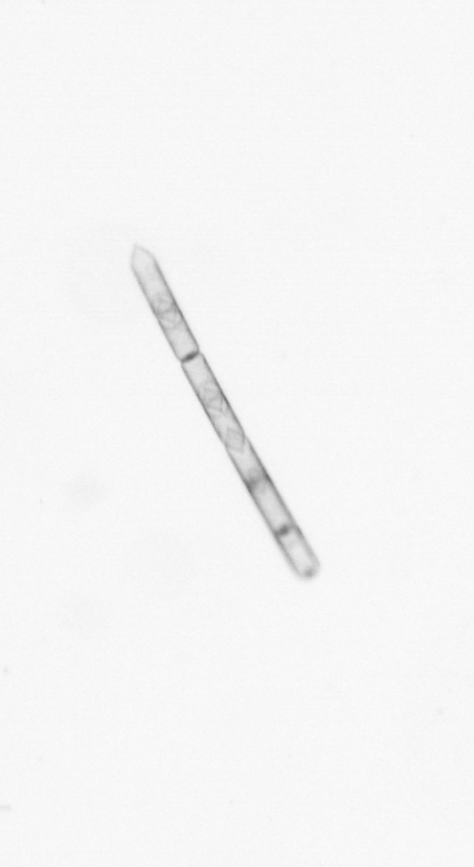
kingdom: Chromista
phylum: Ochrophyta
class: Bacillariophyceae
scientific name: Bacillariophyceae
